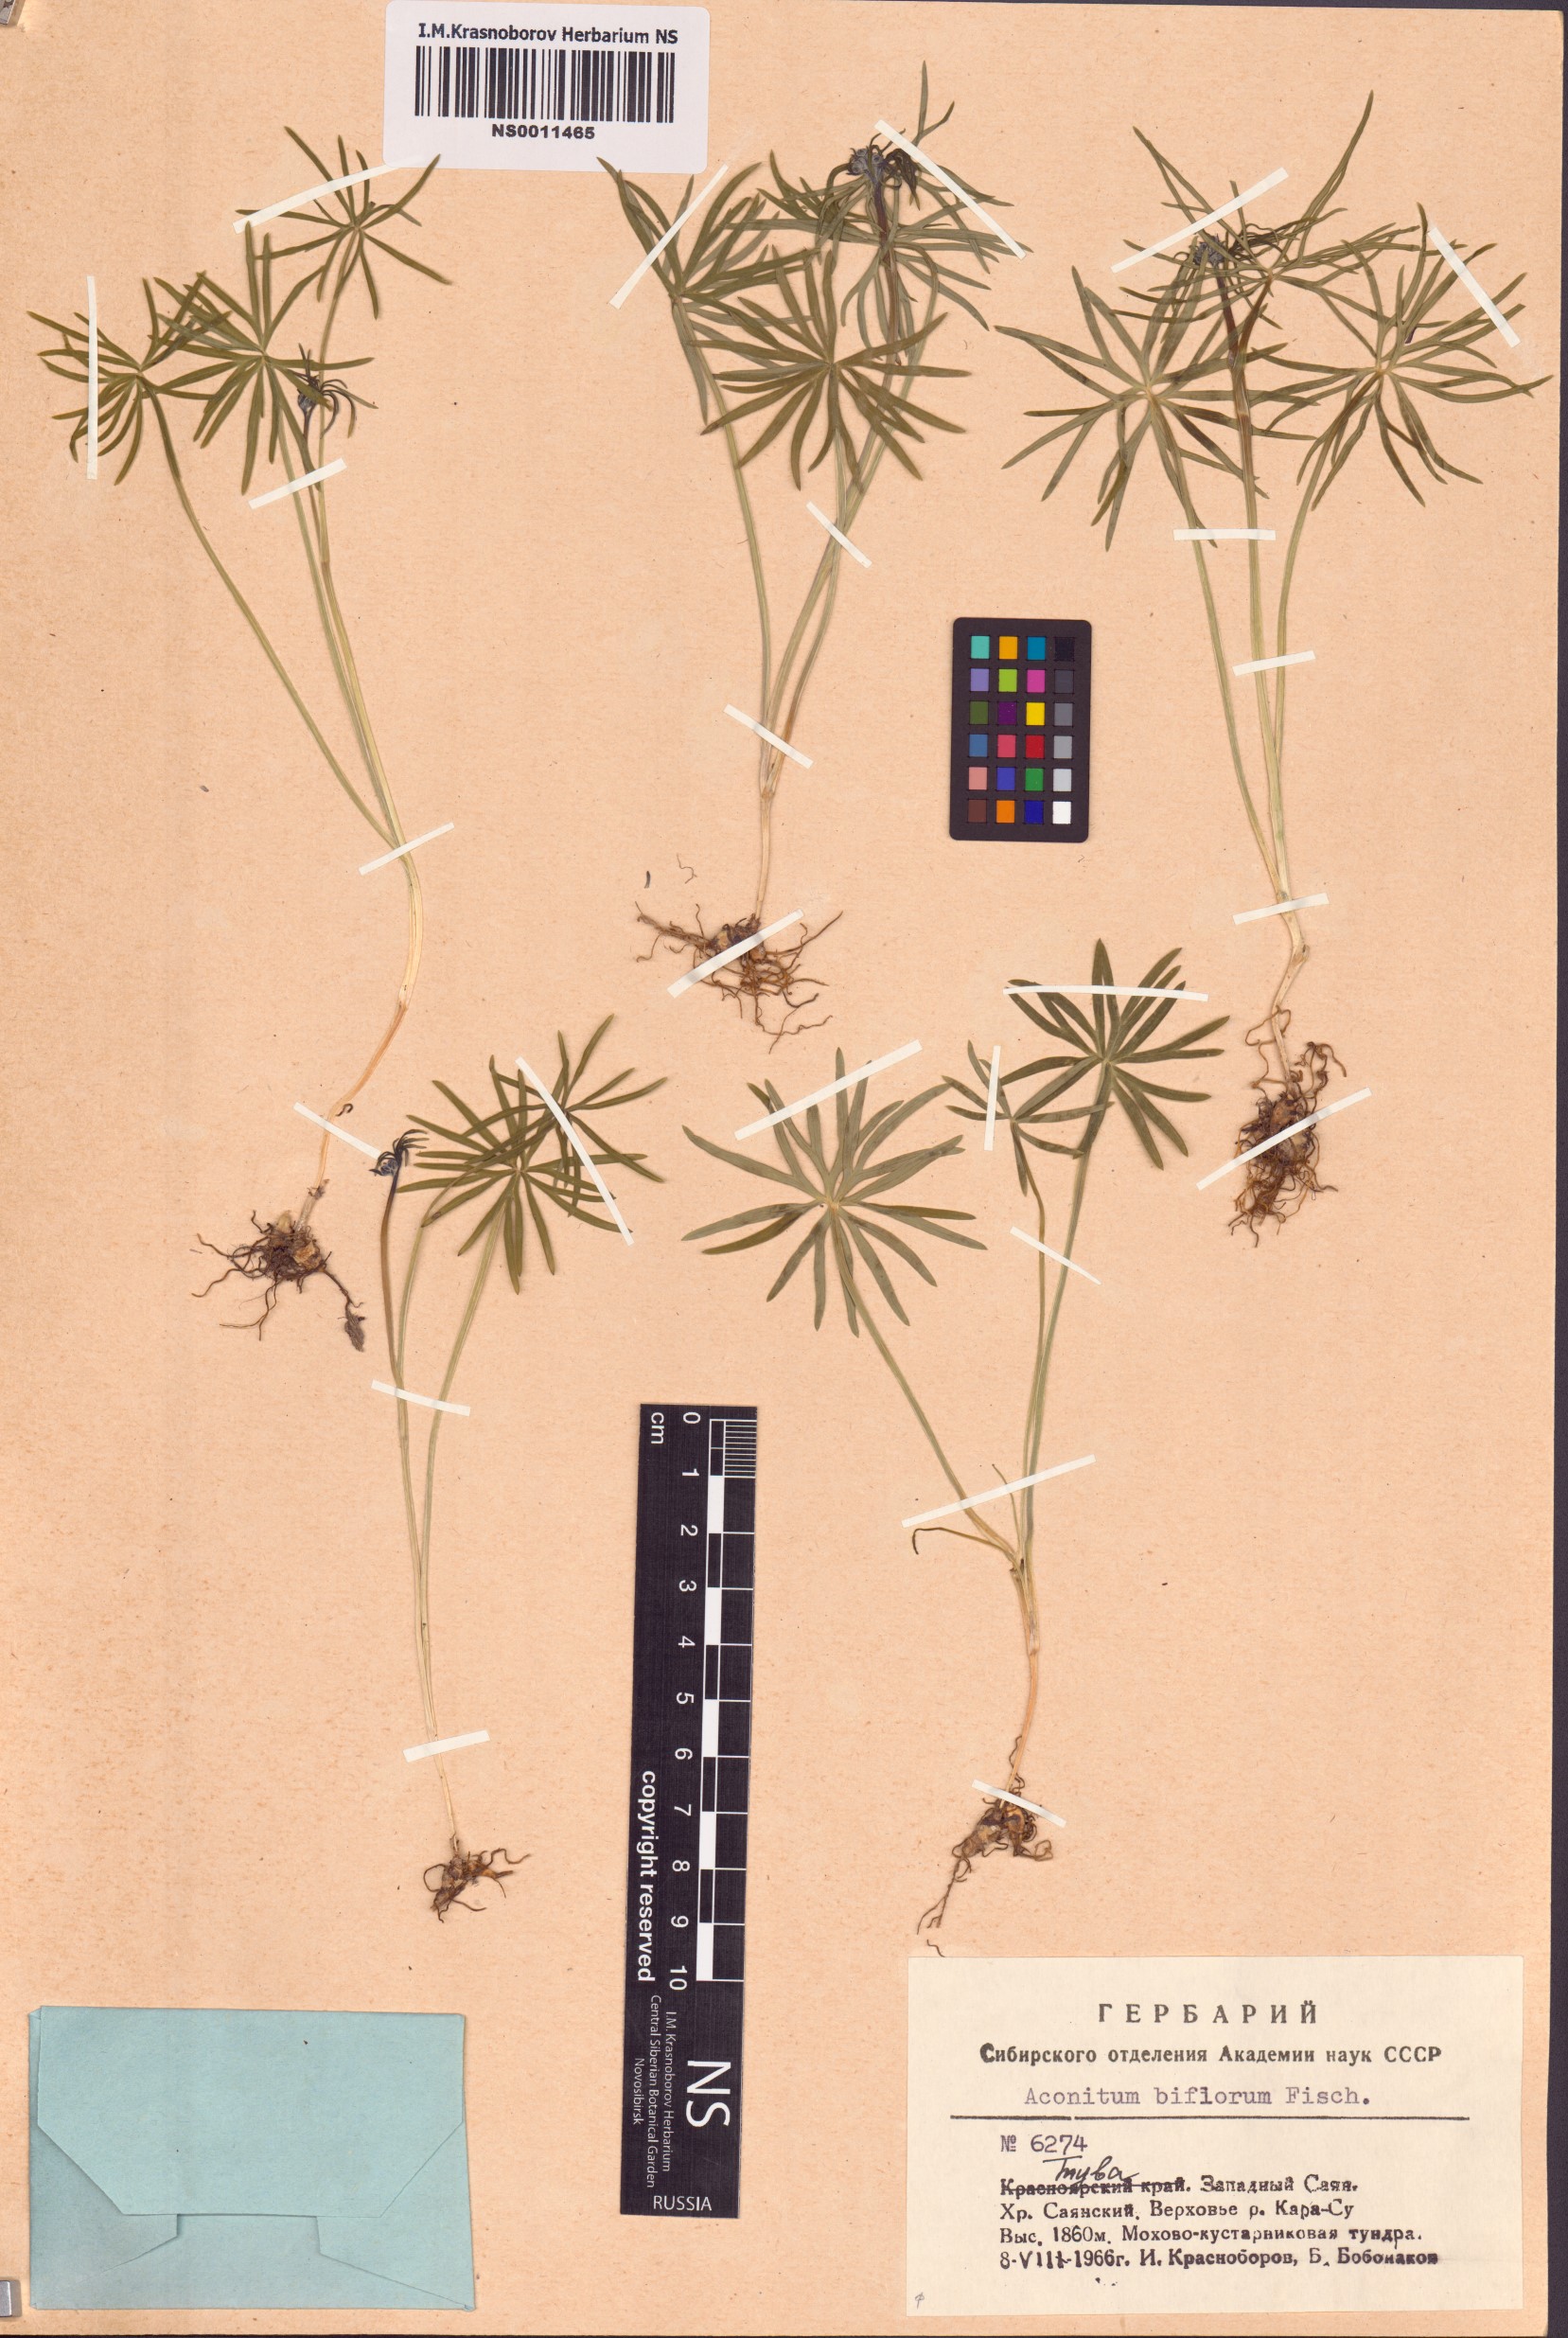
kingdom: Plantae
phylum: Tracheophyta
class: Magnoliopsida
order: Ranunculales
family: Ranunculaceae
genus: Aconitum
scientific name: Aconitum biflorum
